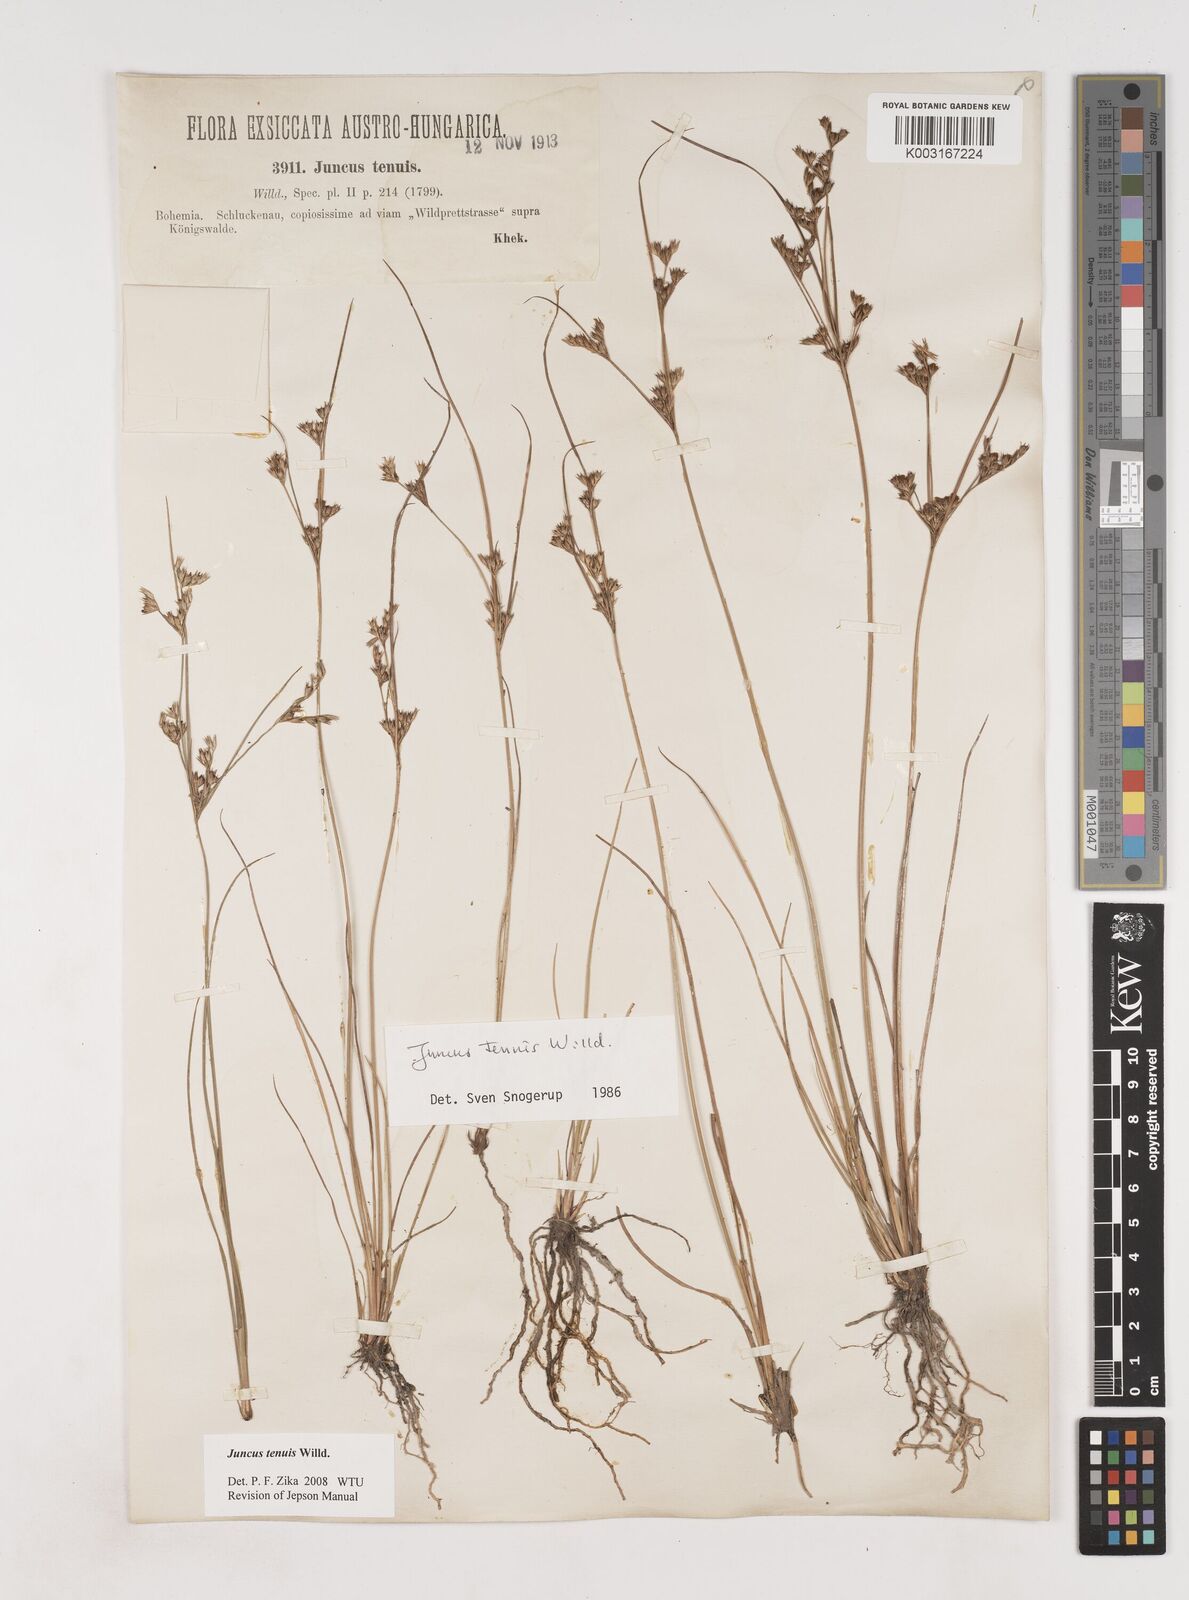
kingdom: Plantae
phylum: Tracheophyta
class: Liliopsida
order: Poales
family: Juncaceae
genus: Juncus
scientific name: Juncus tenuis
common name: Slender rush
